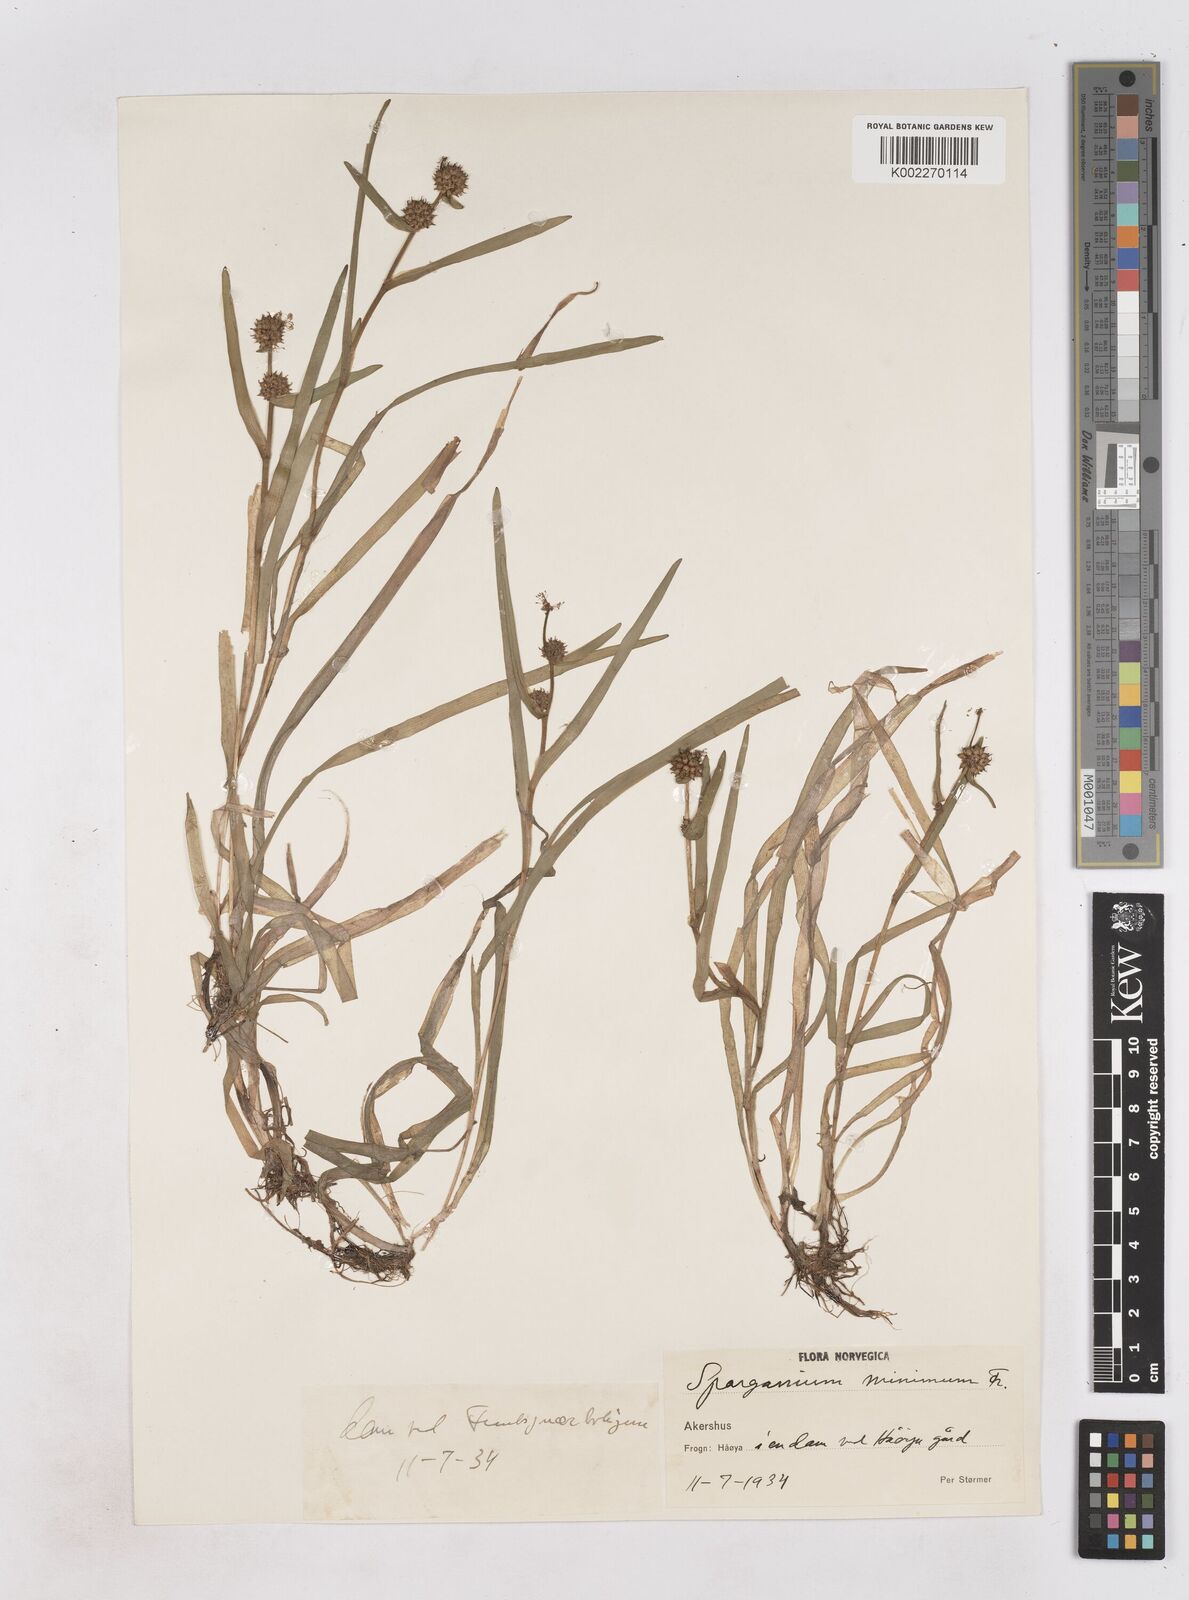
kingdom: Plantae
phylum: Tracheophyta
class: Liliopsida
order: Poales
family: Typhaceae
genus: Sparganium
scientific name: Sparganium natans
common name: Least bur-reed
